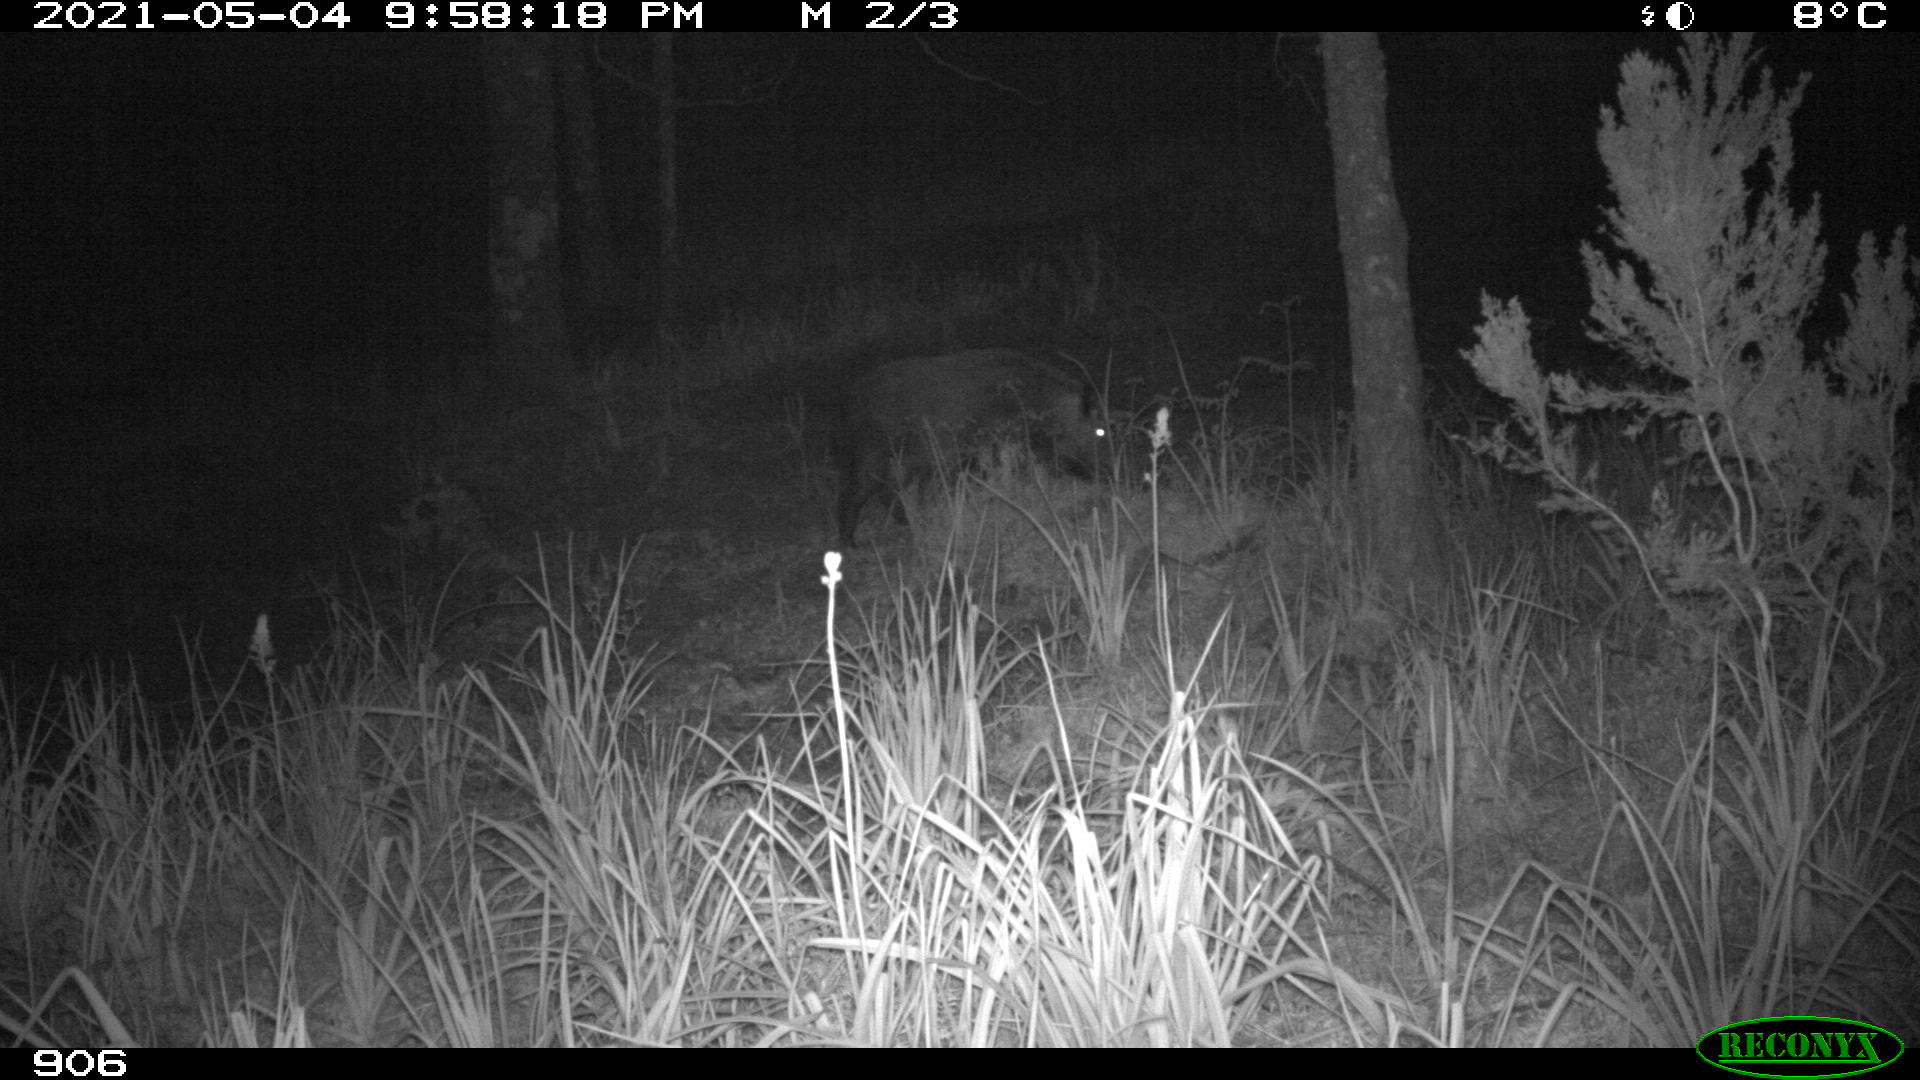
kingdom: Animalia
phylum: Chordata
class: Mammalia
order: Artiodactyla
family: Suidae
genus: Sus
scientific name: Sus scrofa
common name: Wild boar
